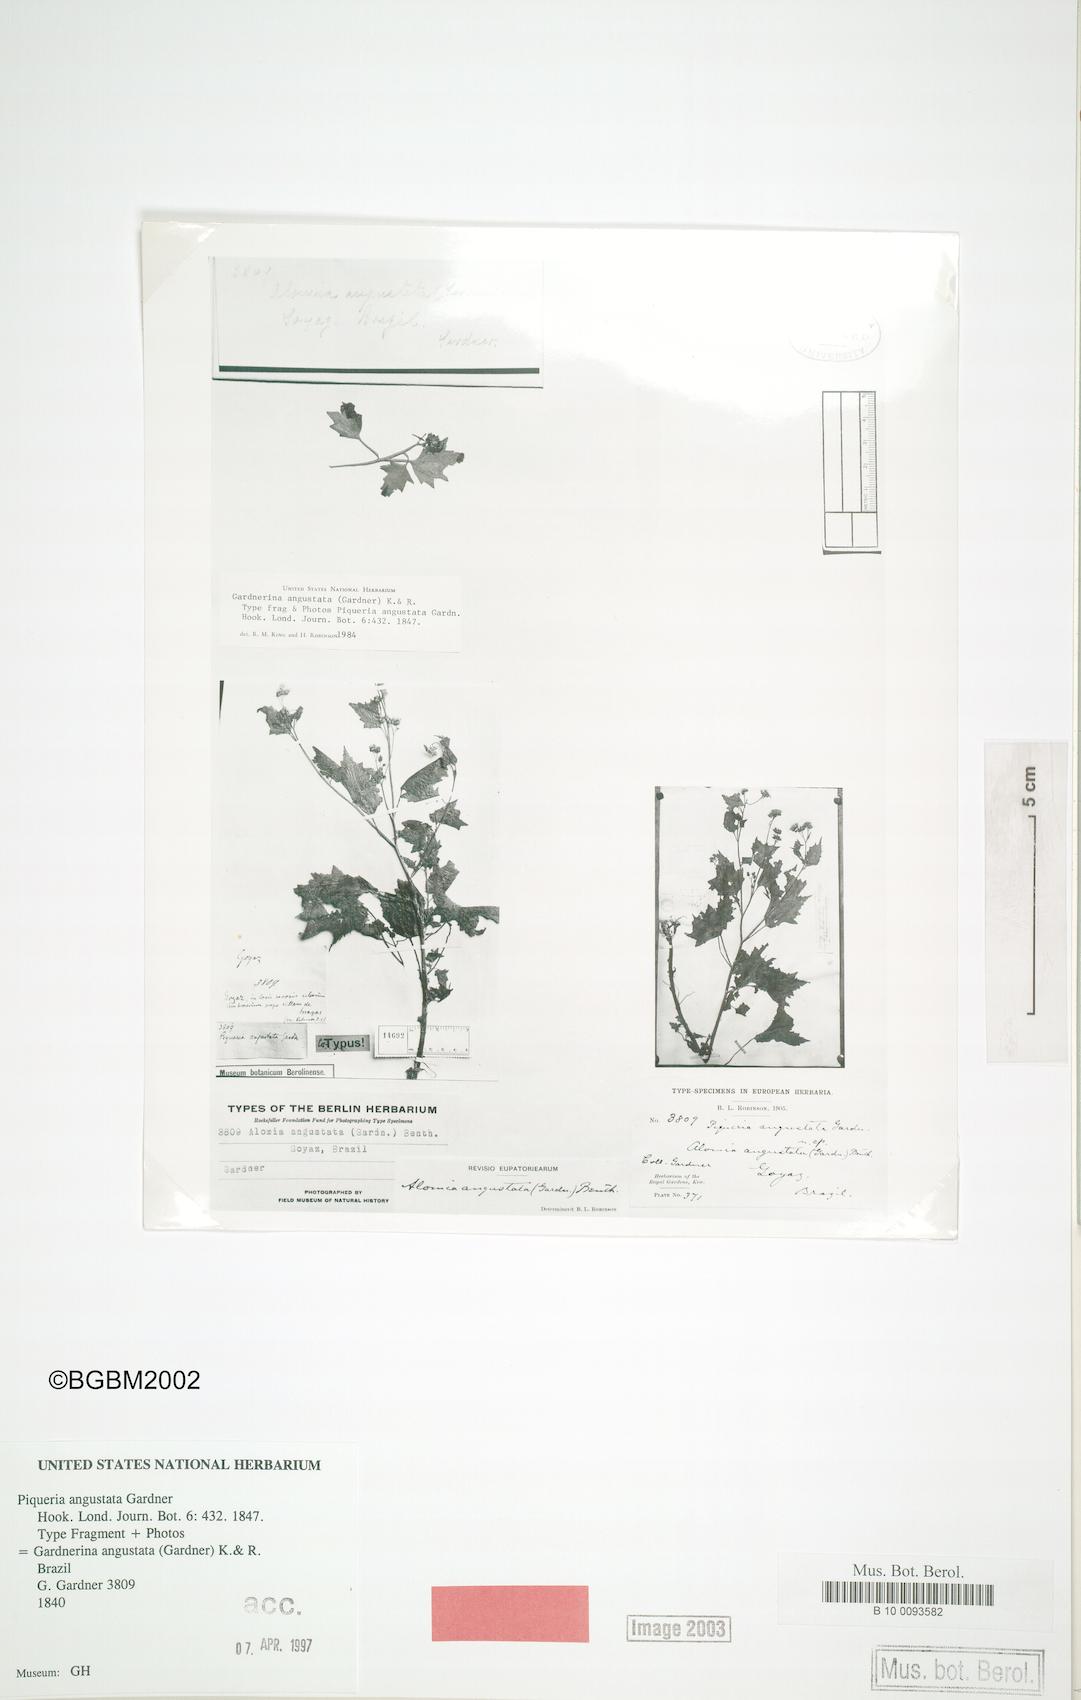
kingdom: Plantae
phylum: Tracheophyta
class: Magnoliopsida
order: Asterales
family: Asteraceae
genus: Gardnerina
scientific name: Gardnerina angustata
